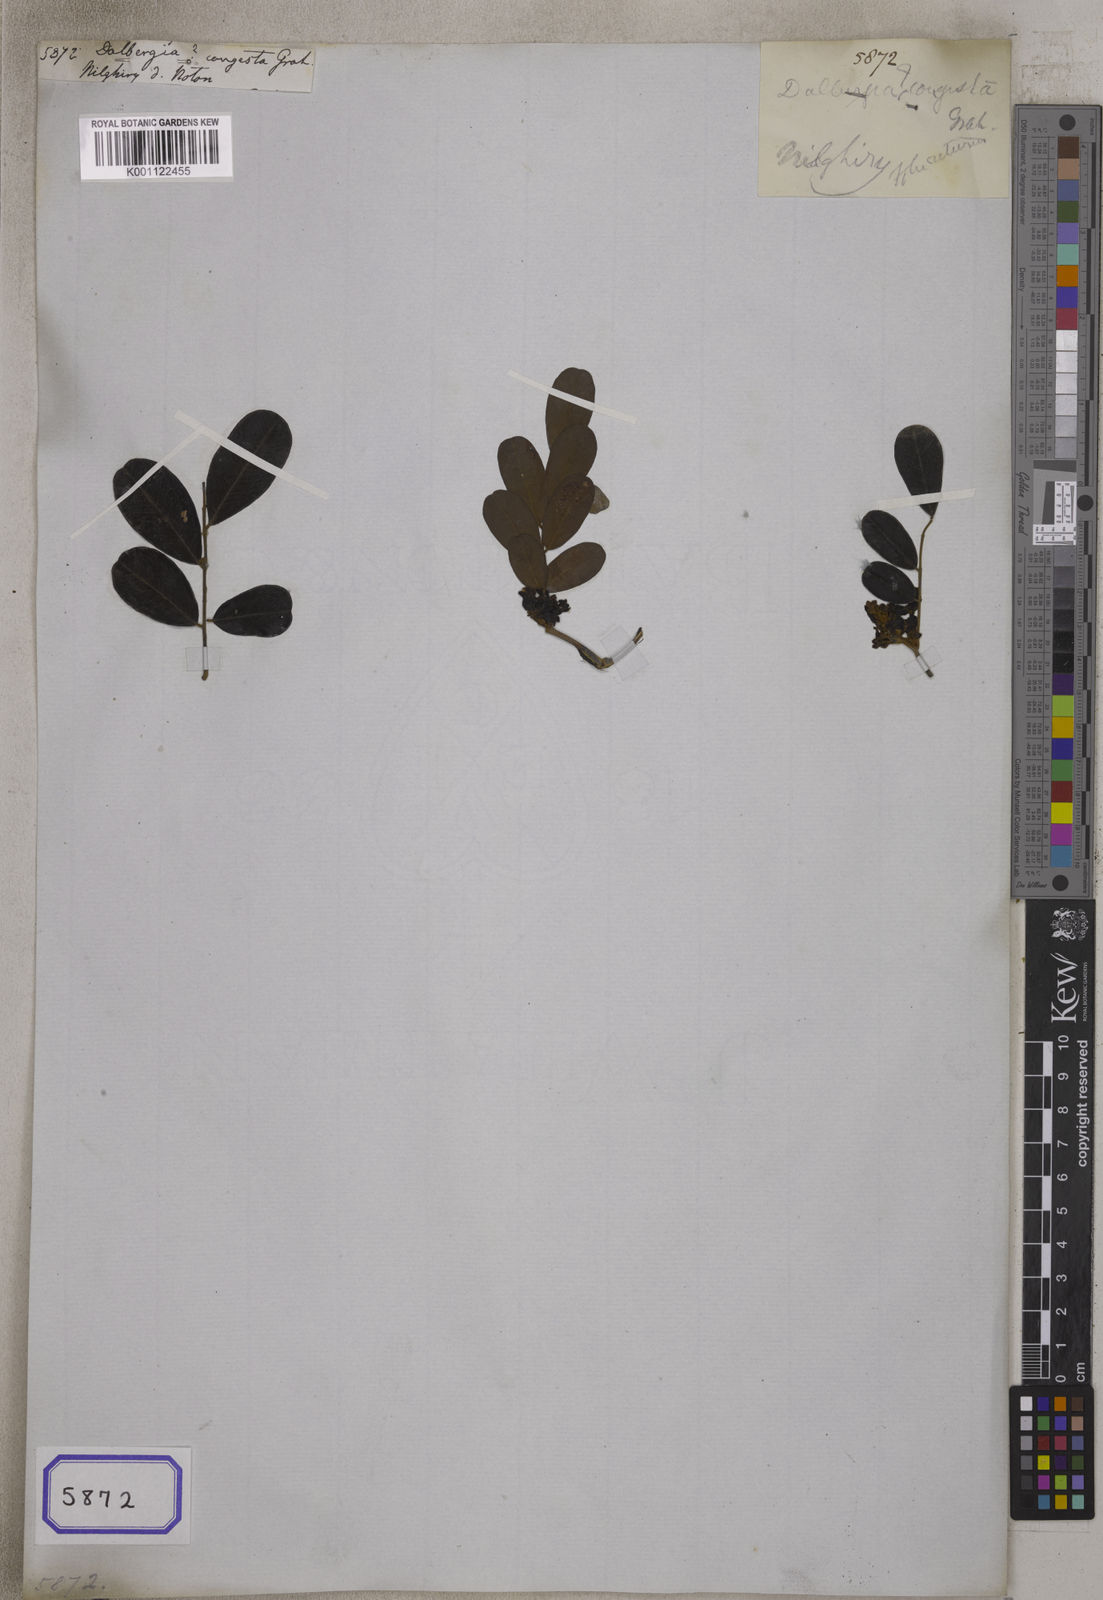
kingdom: Plantae
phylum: Tracheophyta
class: Magnoliopsida
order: Fabales
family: Fabaceae
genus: Dalbergia
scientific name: Dalbergia
